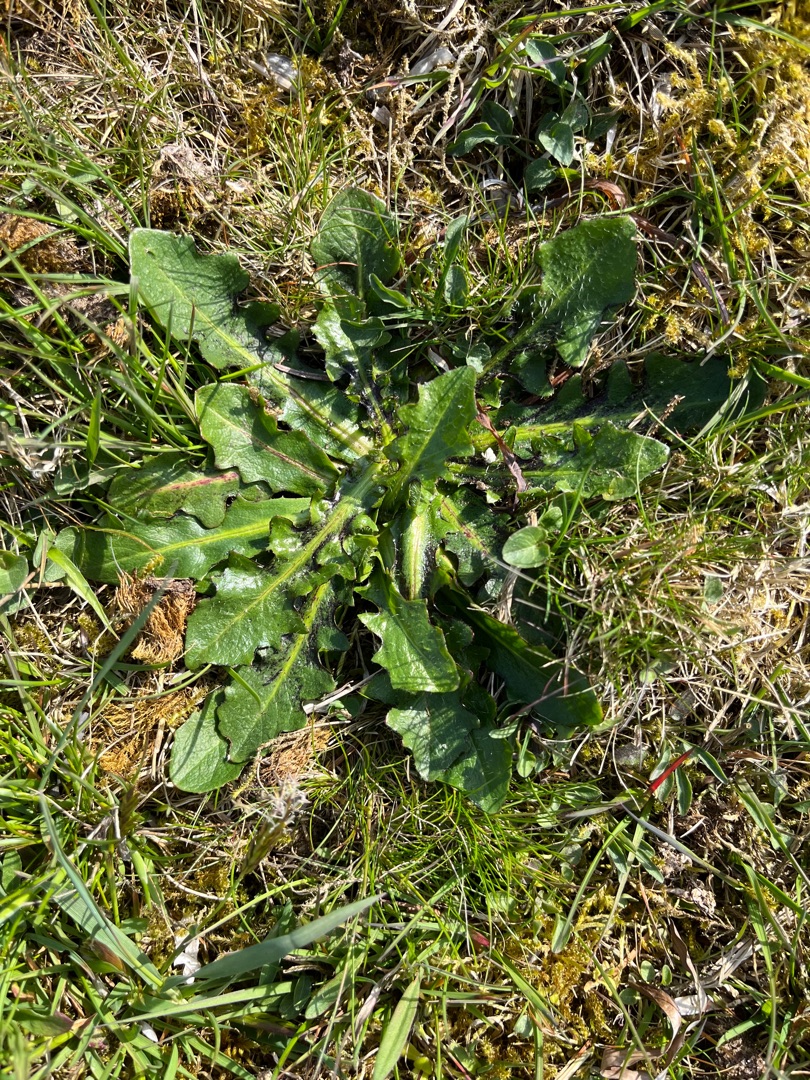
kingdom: Plantae
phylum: Tracheophyta
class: Magnoliopsida
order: Asterales
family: Asteraceae
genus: Hypochaeris
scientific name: Hypochaeris radicata
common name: Almindelig kongepen
